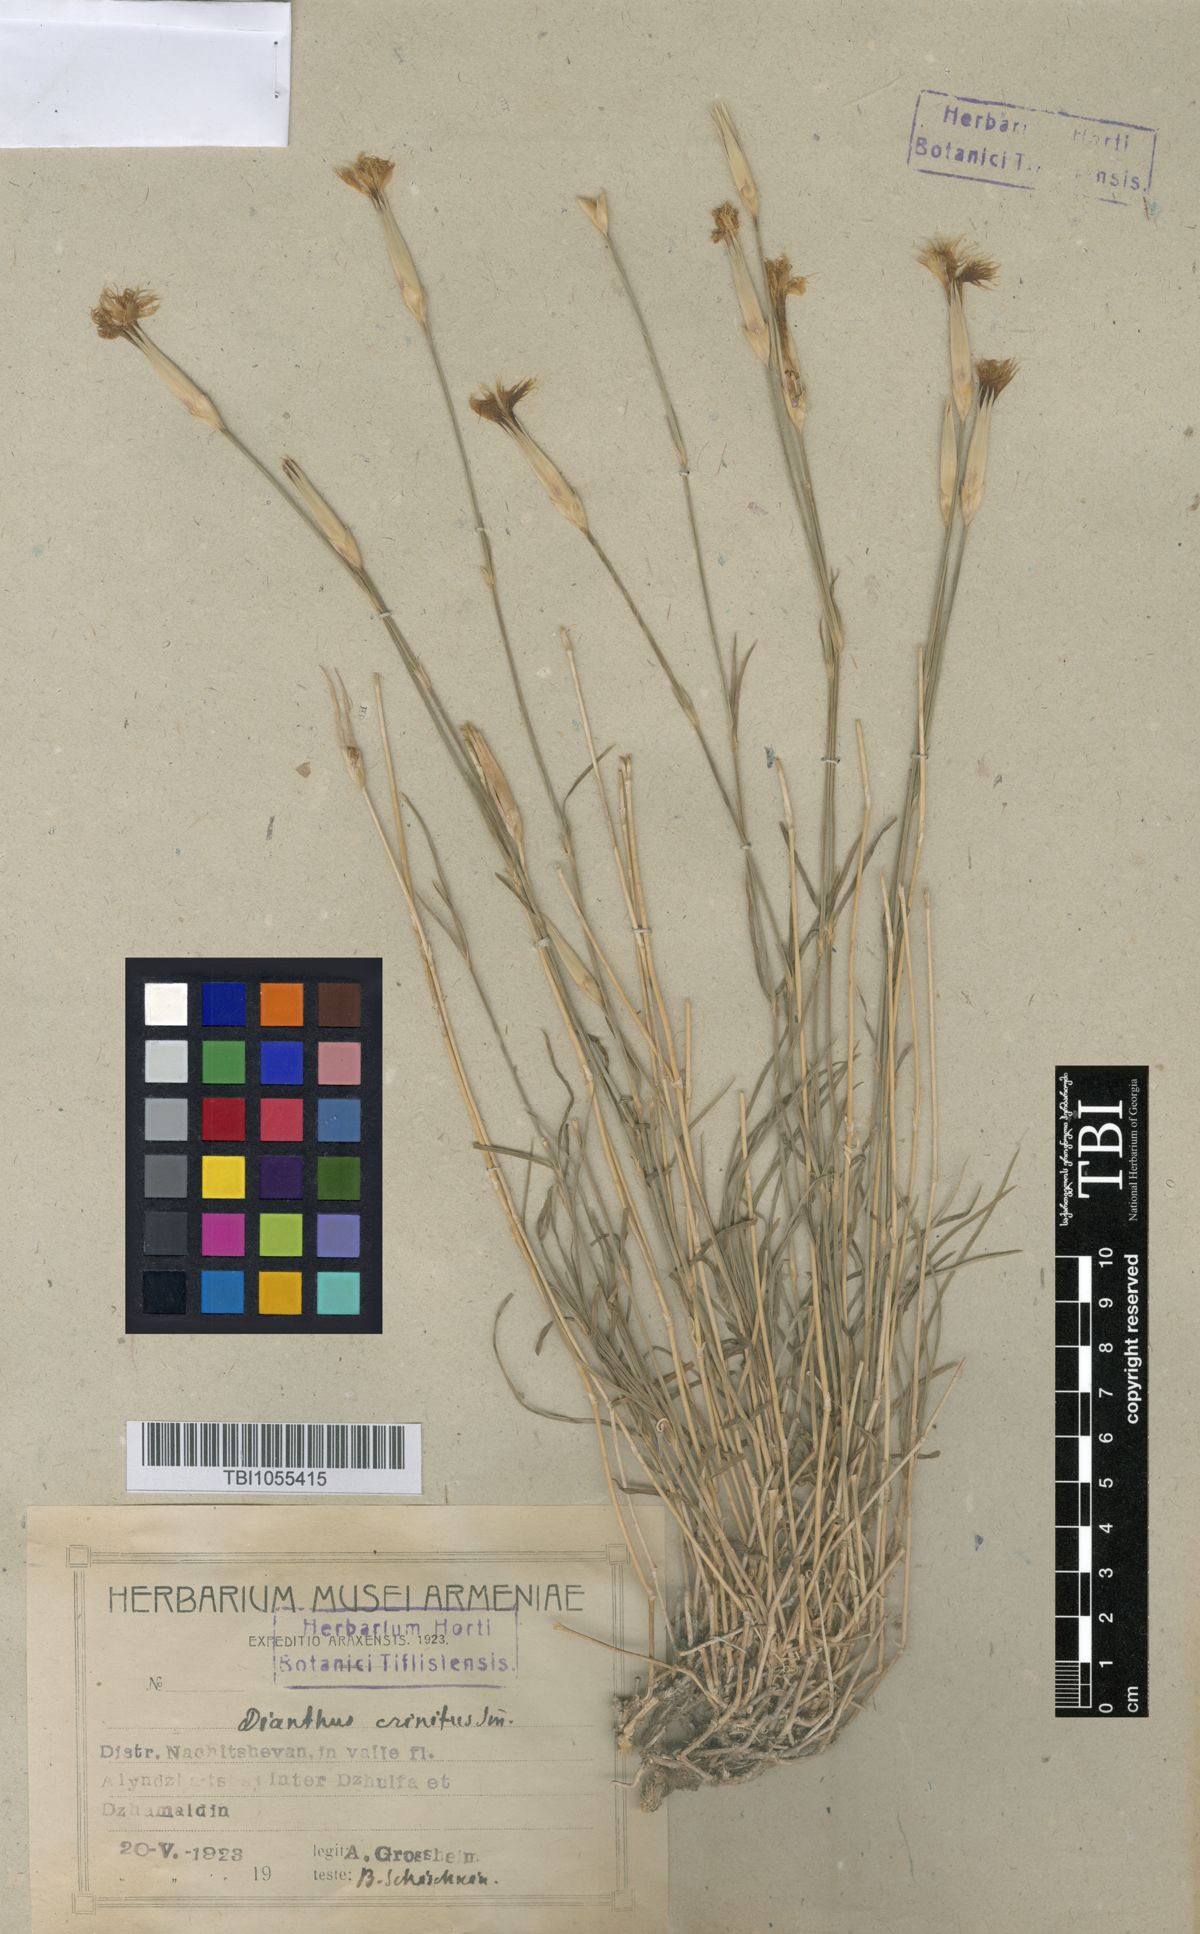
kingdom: Plantae
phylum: Tracheophyta
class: Magnoliopsida
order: Caryophyllales
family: Caryophyllaceae
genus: Dianthus
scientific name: Dianthus crinitus
